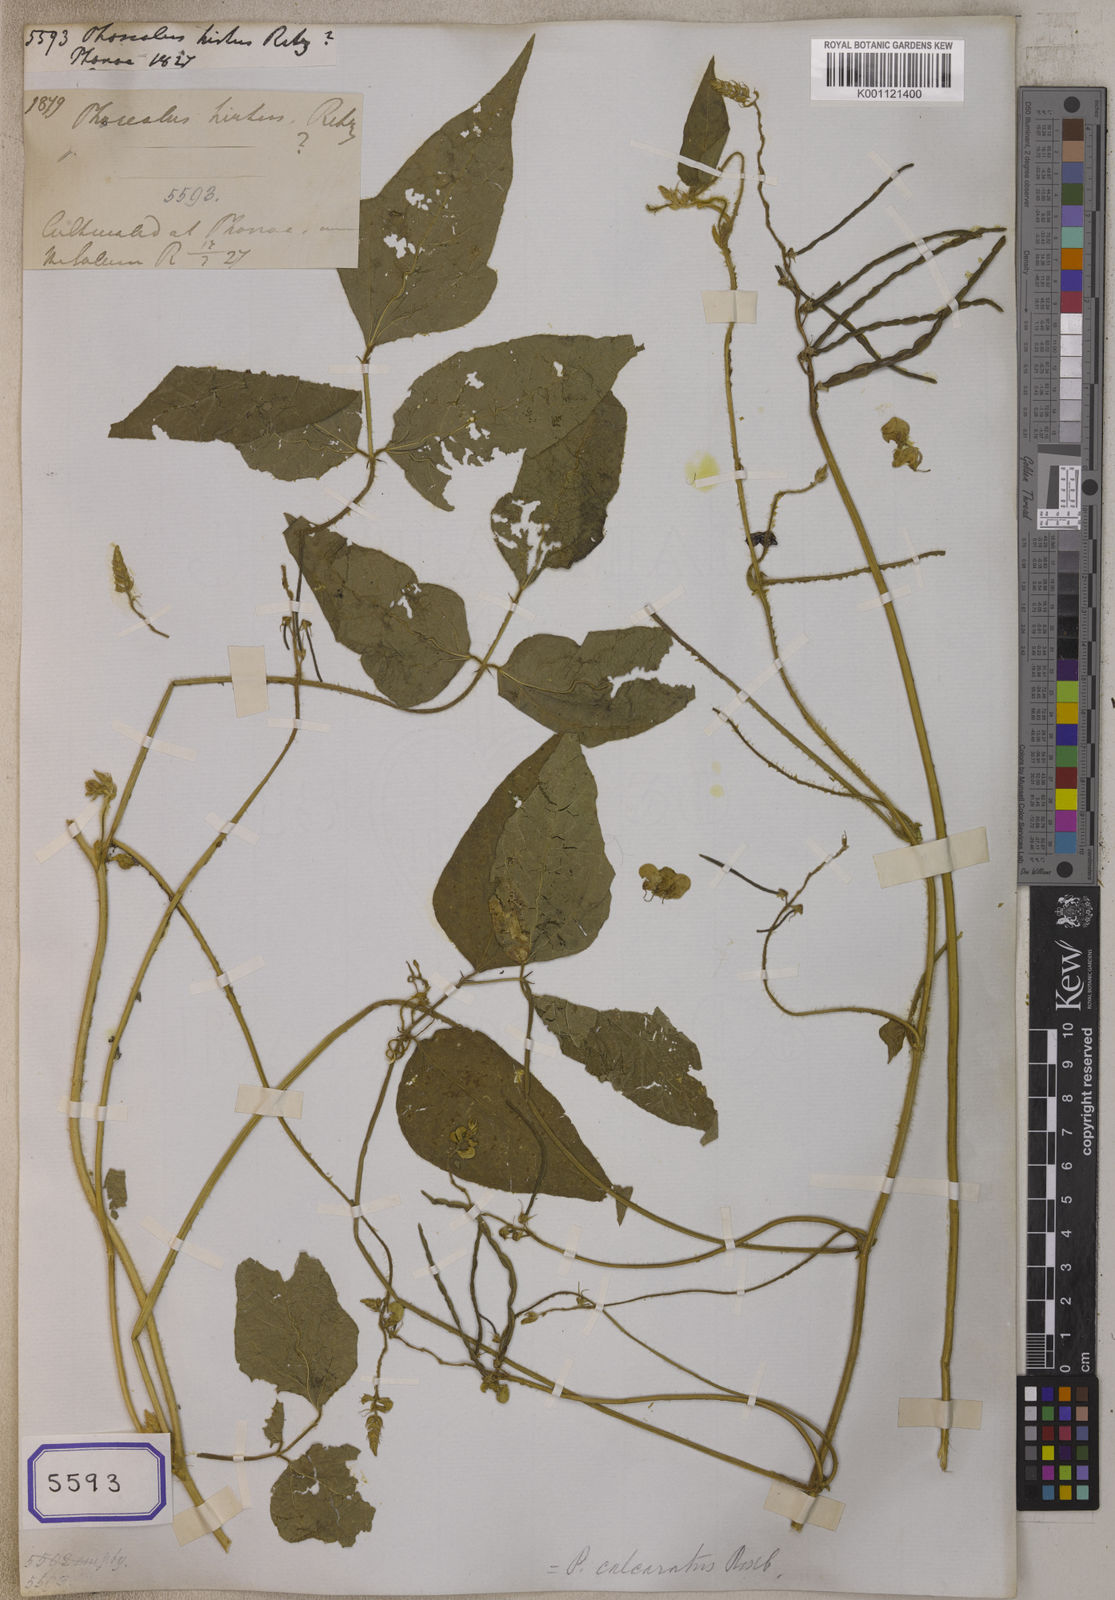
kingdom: Plantae
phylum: Tracheophyta
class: Magnoliopsida
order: Fabales
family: Fabaceae
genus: Vigna
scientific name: Vigna mungo
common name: Black gram
